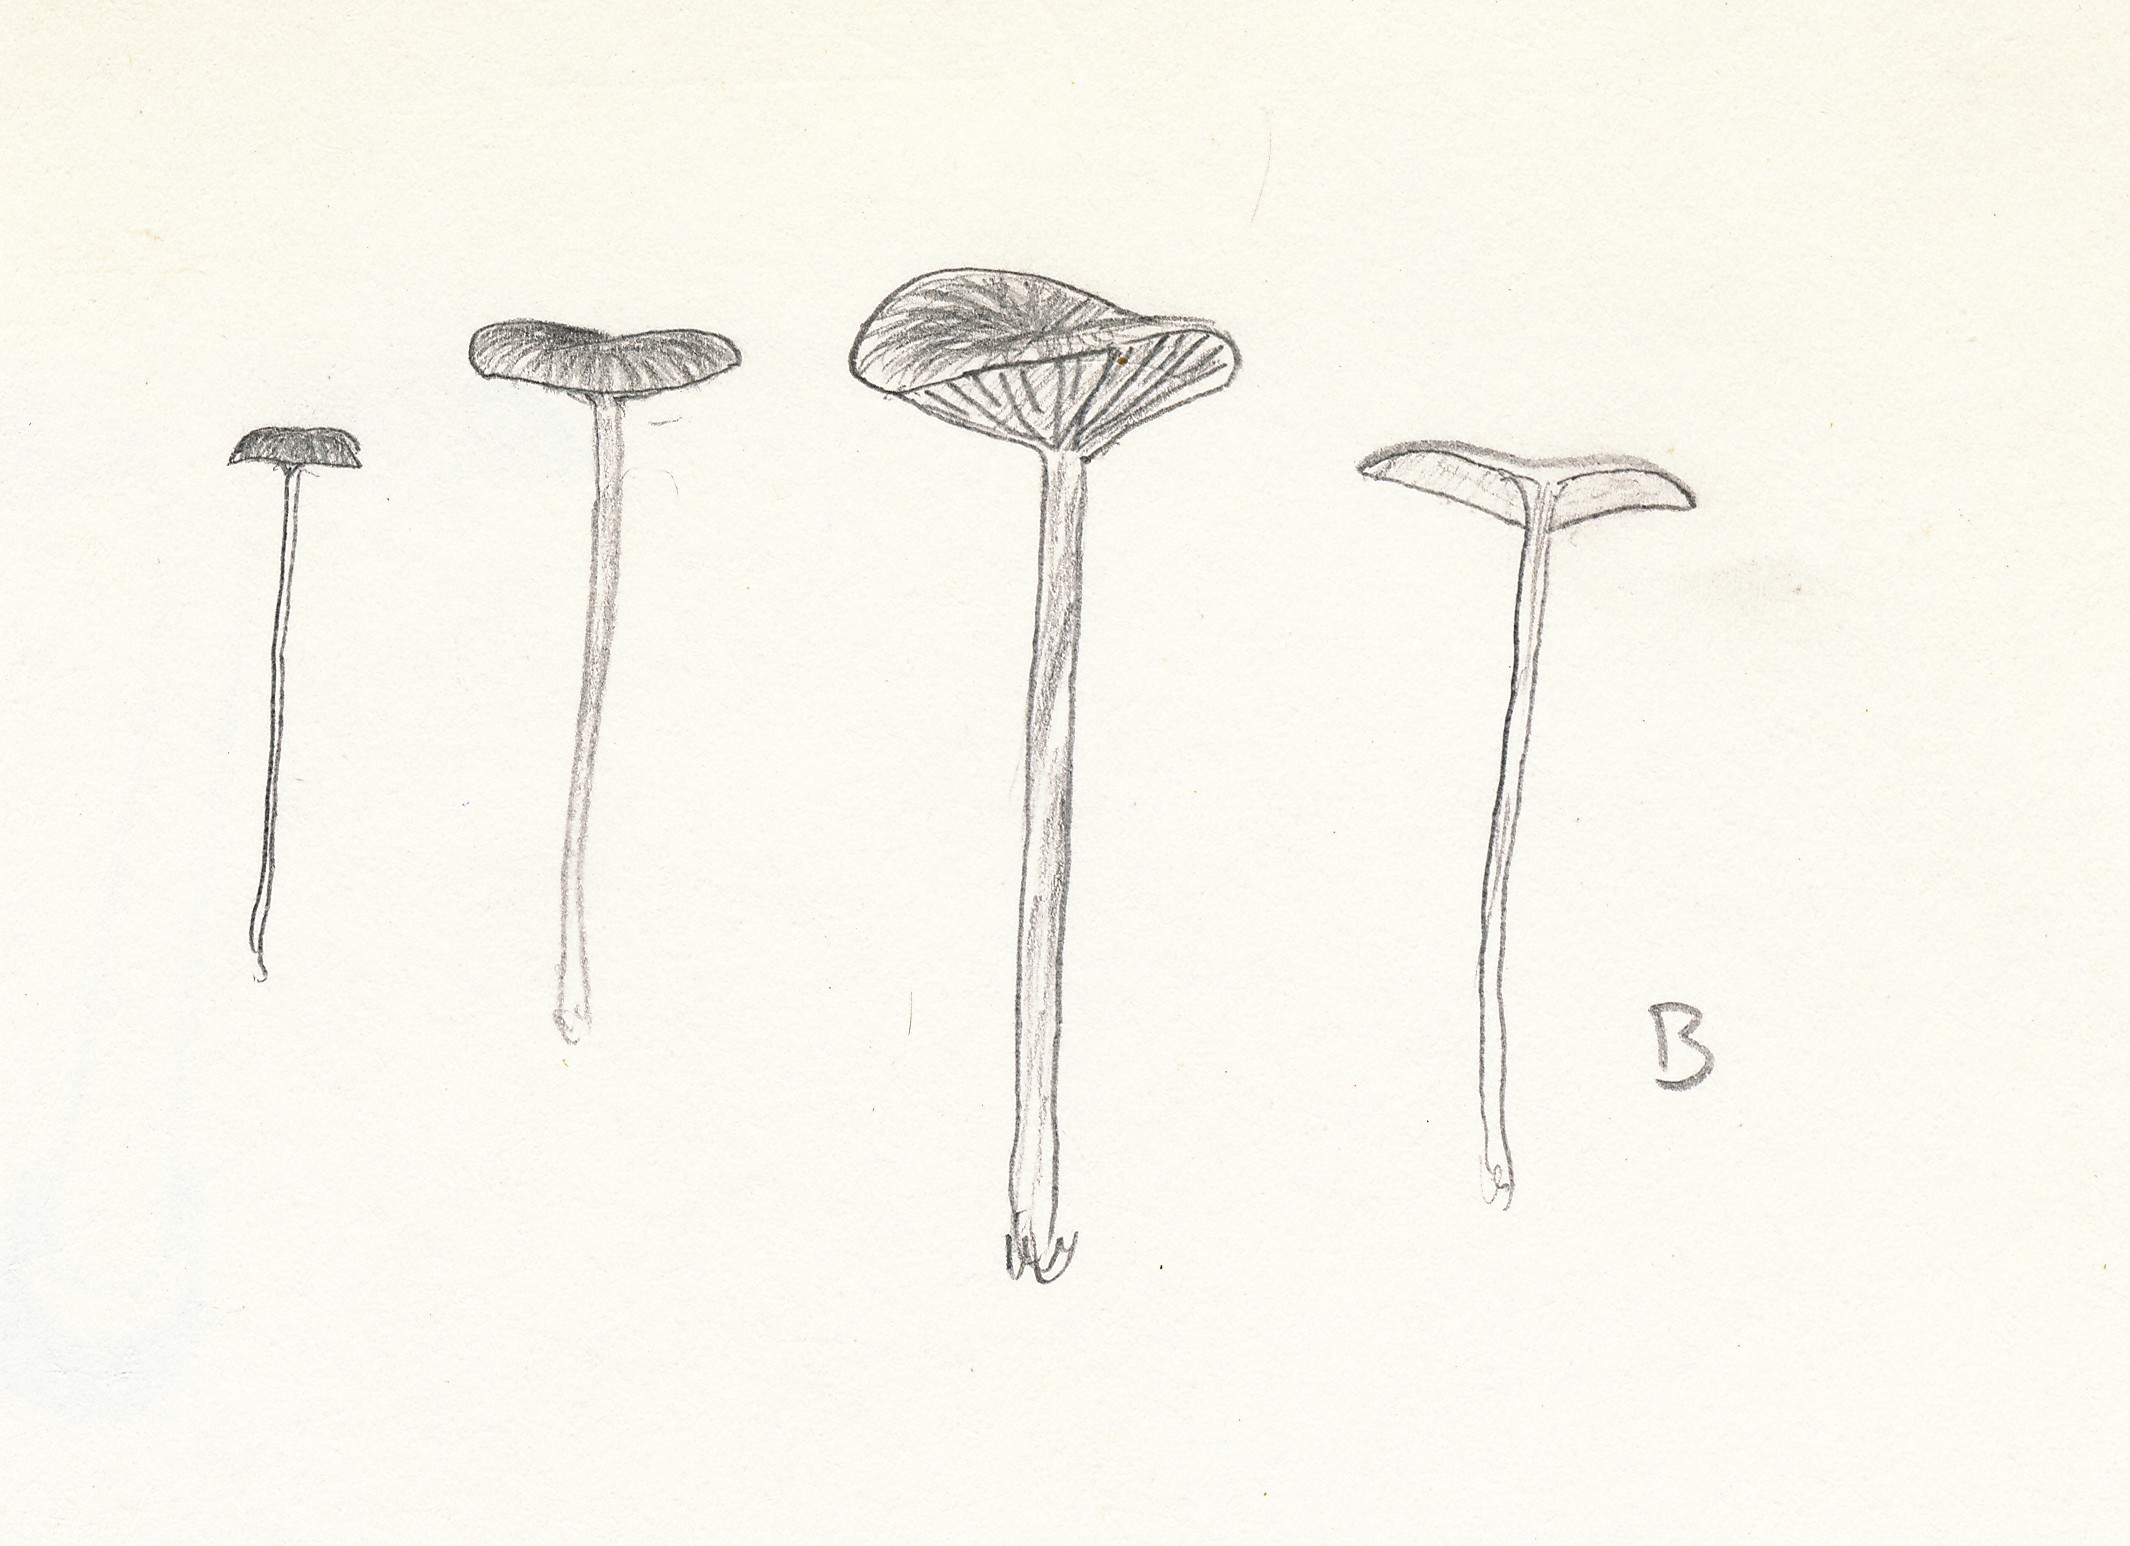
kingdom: Fungi
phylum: Basidiomycota
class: Agaricomycetes
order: Agaricales
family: Mycenaceae
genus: Mycena
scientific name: Mycena vulgaris
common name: klæbrig huesvamp
